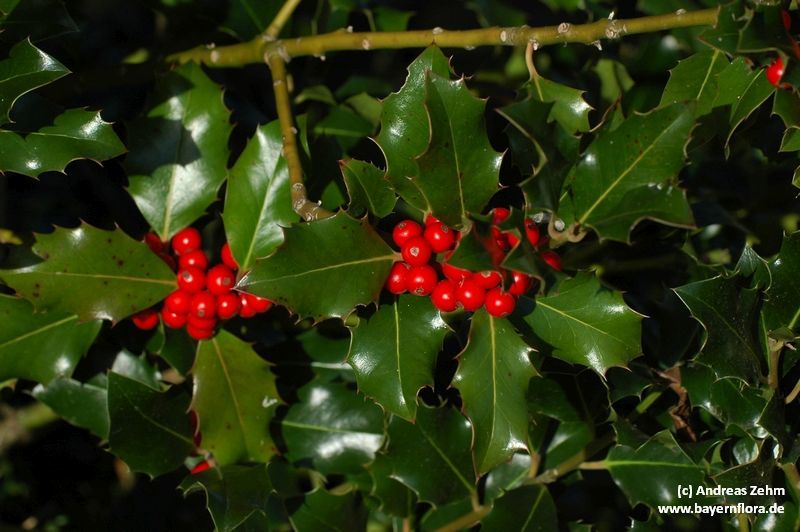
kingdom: Plantae
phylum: Tracheophyta
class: Magnoliopsida
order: Aquifoliales
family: Aquifoliaceae
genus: Ilex
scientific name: Ilex aquifolium
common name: English holly
